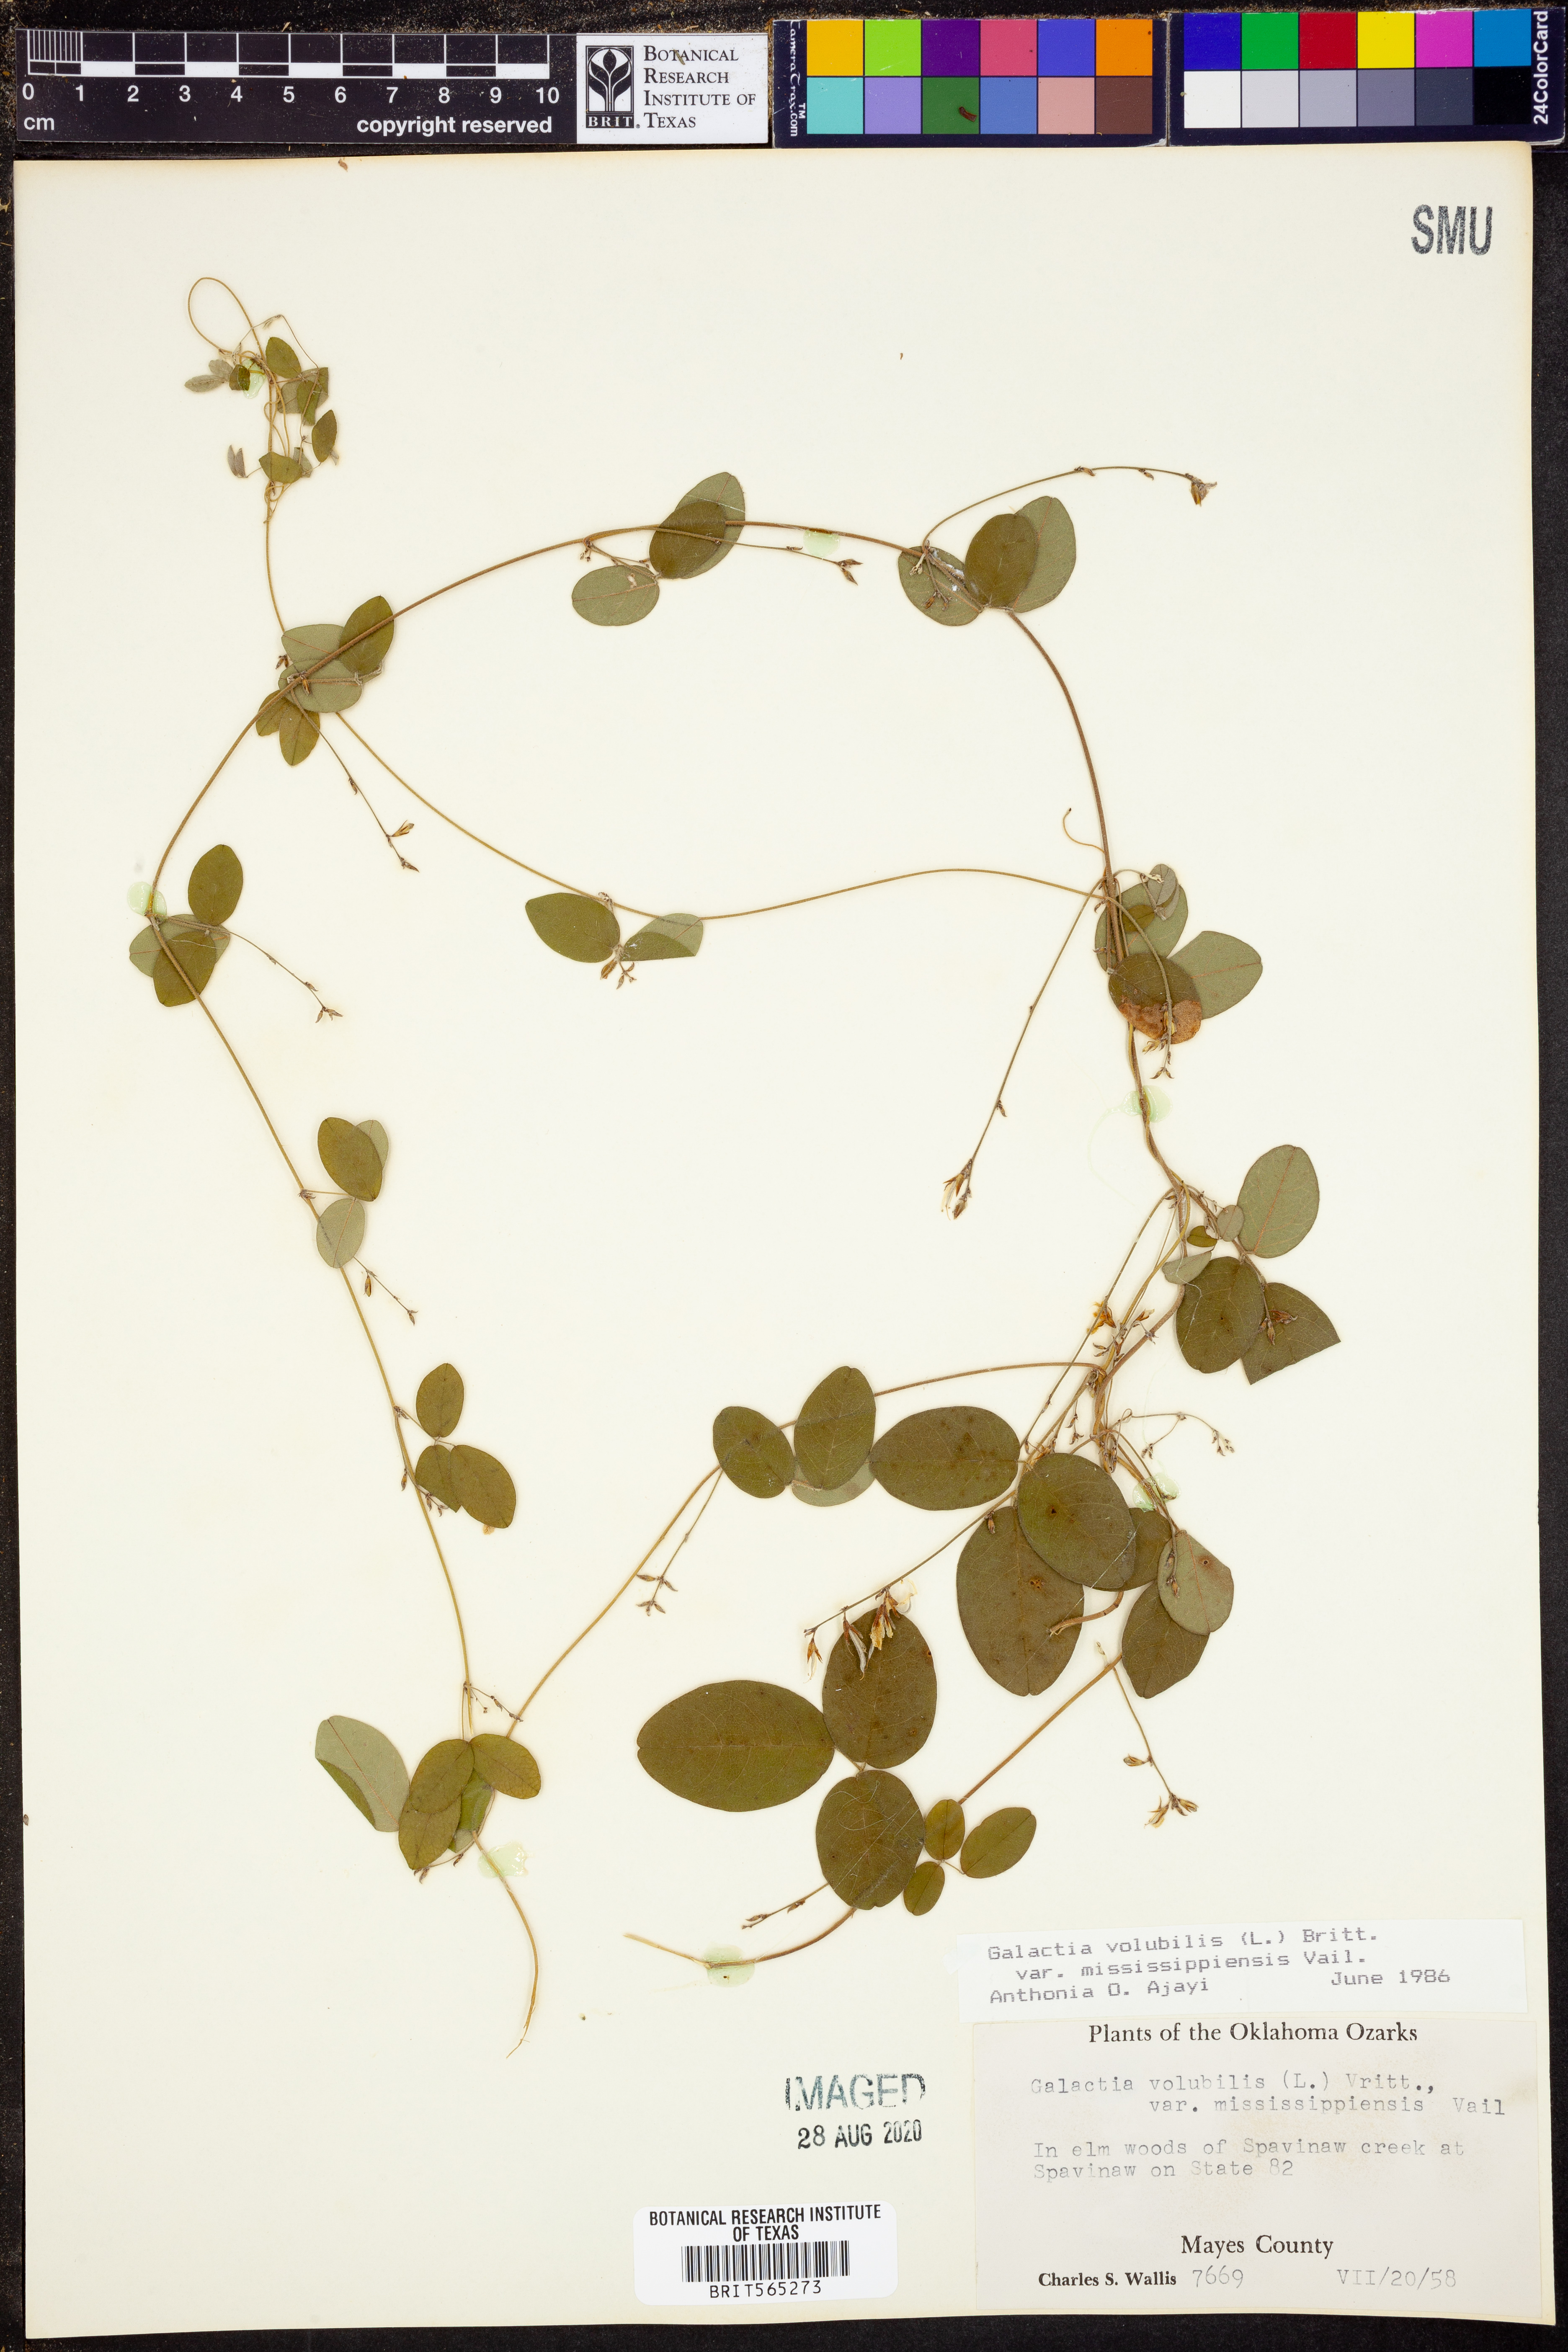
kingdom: Plantae
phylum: Tracheophyta
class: Magnoliopsida
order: Fabales
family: Fabaceae
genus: Galactia
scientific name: Galactia volubilis
